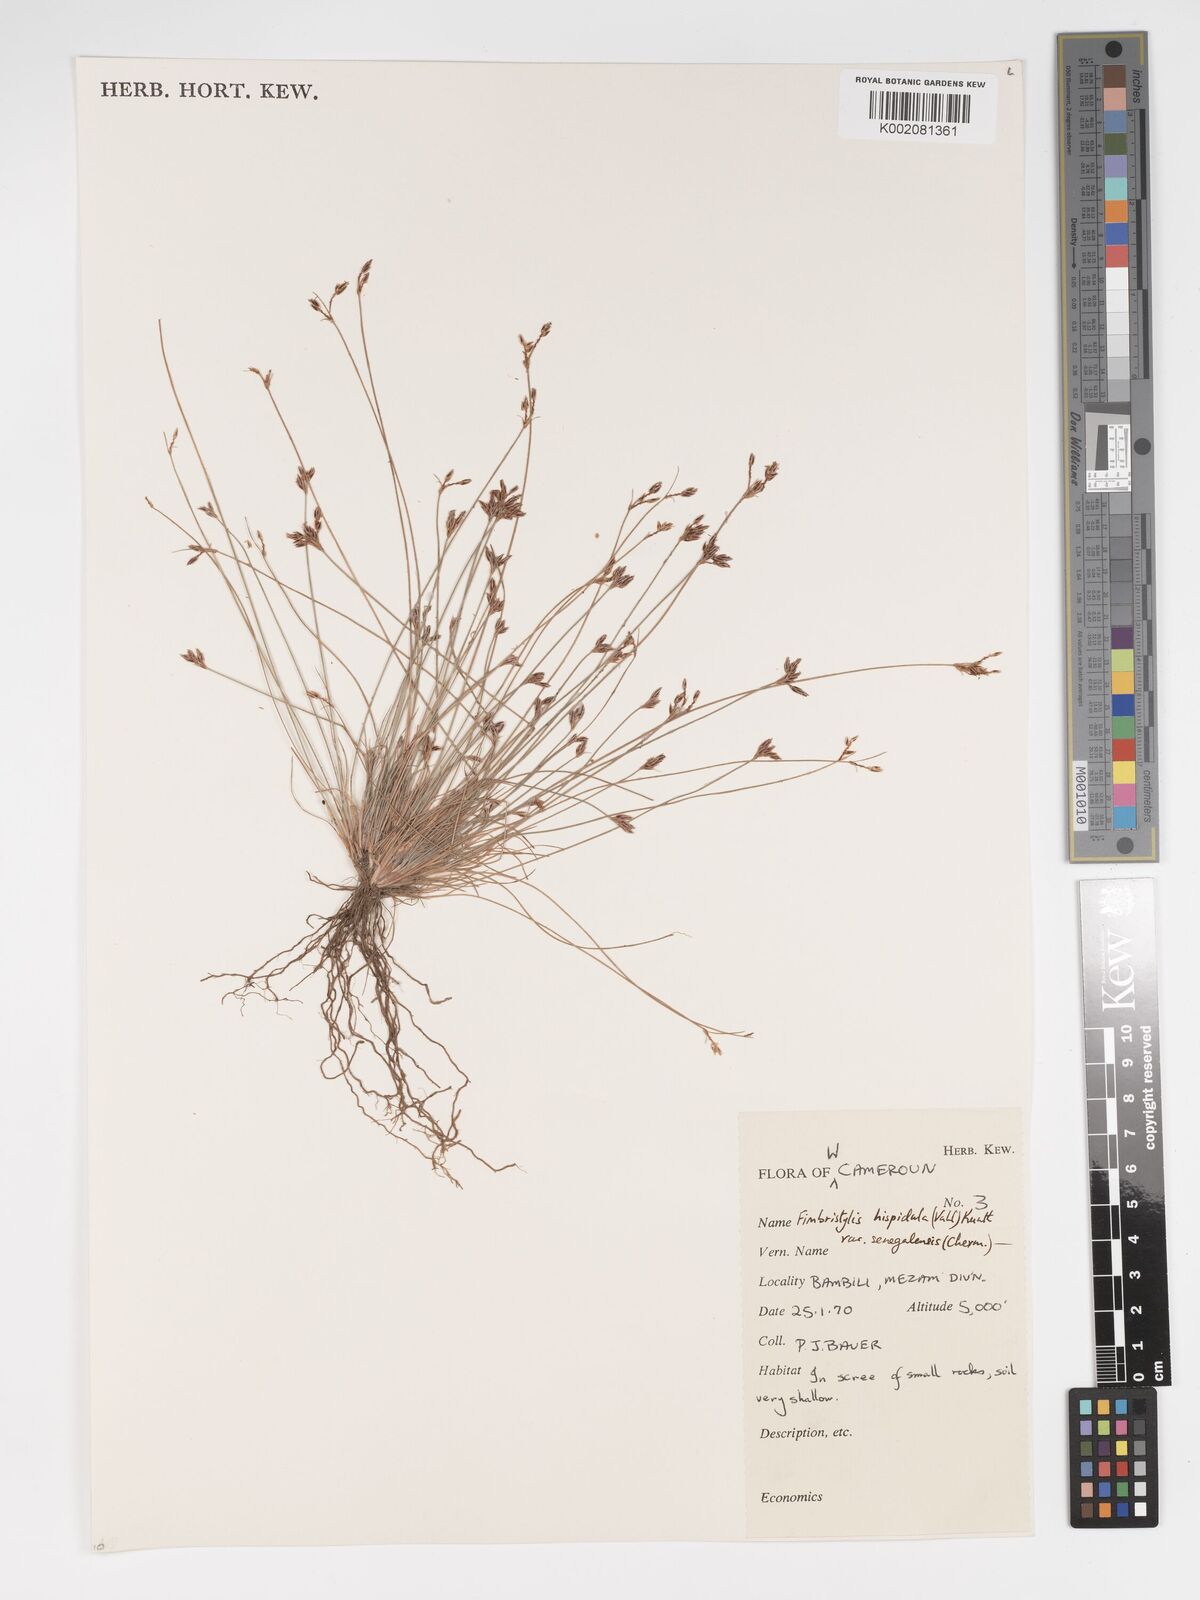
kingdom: Plantae
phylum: Tracheophyta
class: Liliopsida
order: Poales
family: Cyperaceae
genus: Bulbostylis
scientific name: Bulbostylis hispidula
